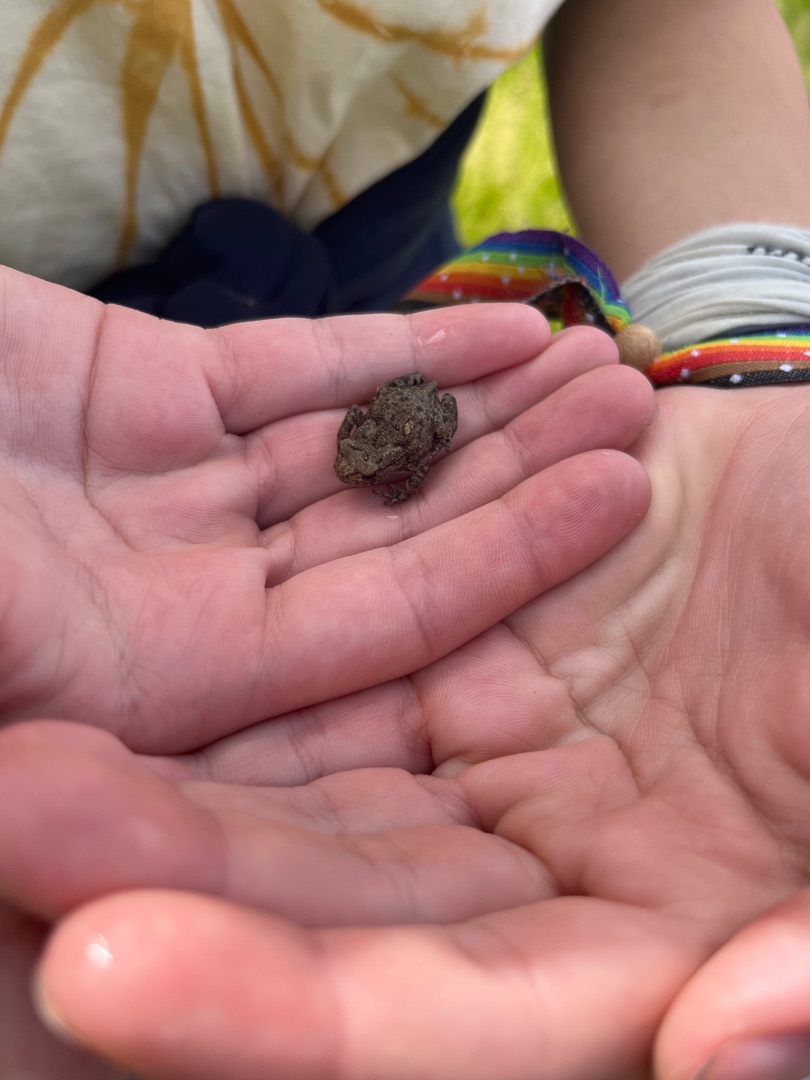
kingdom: Animalia
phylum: Chordata
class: Amphibia
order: Anura
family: Bufonidae
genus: Bufo
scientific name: Bufo bufo
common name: Skrubtudse
